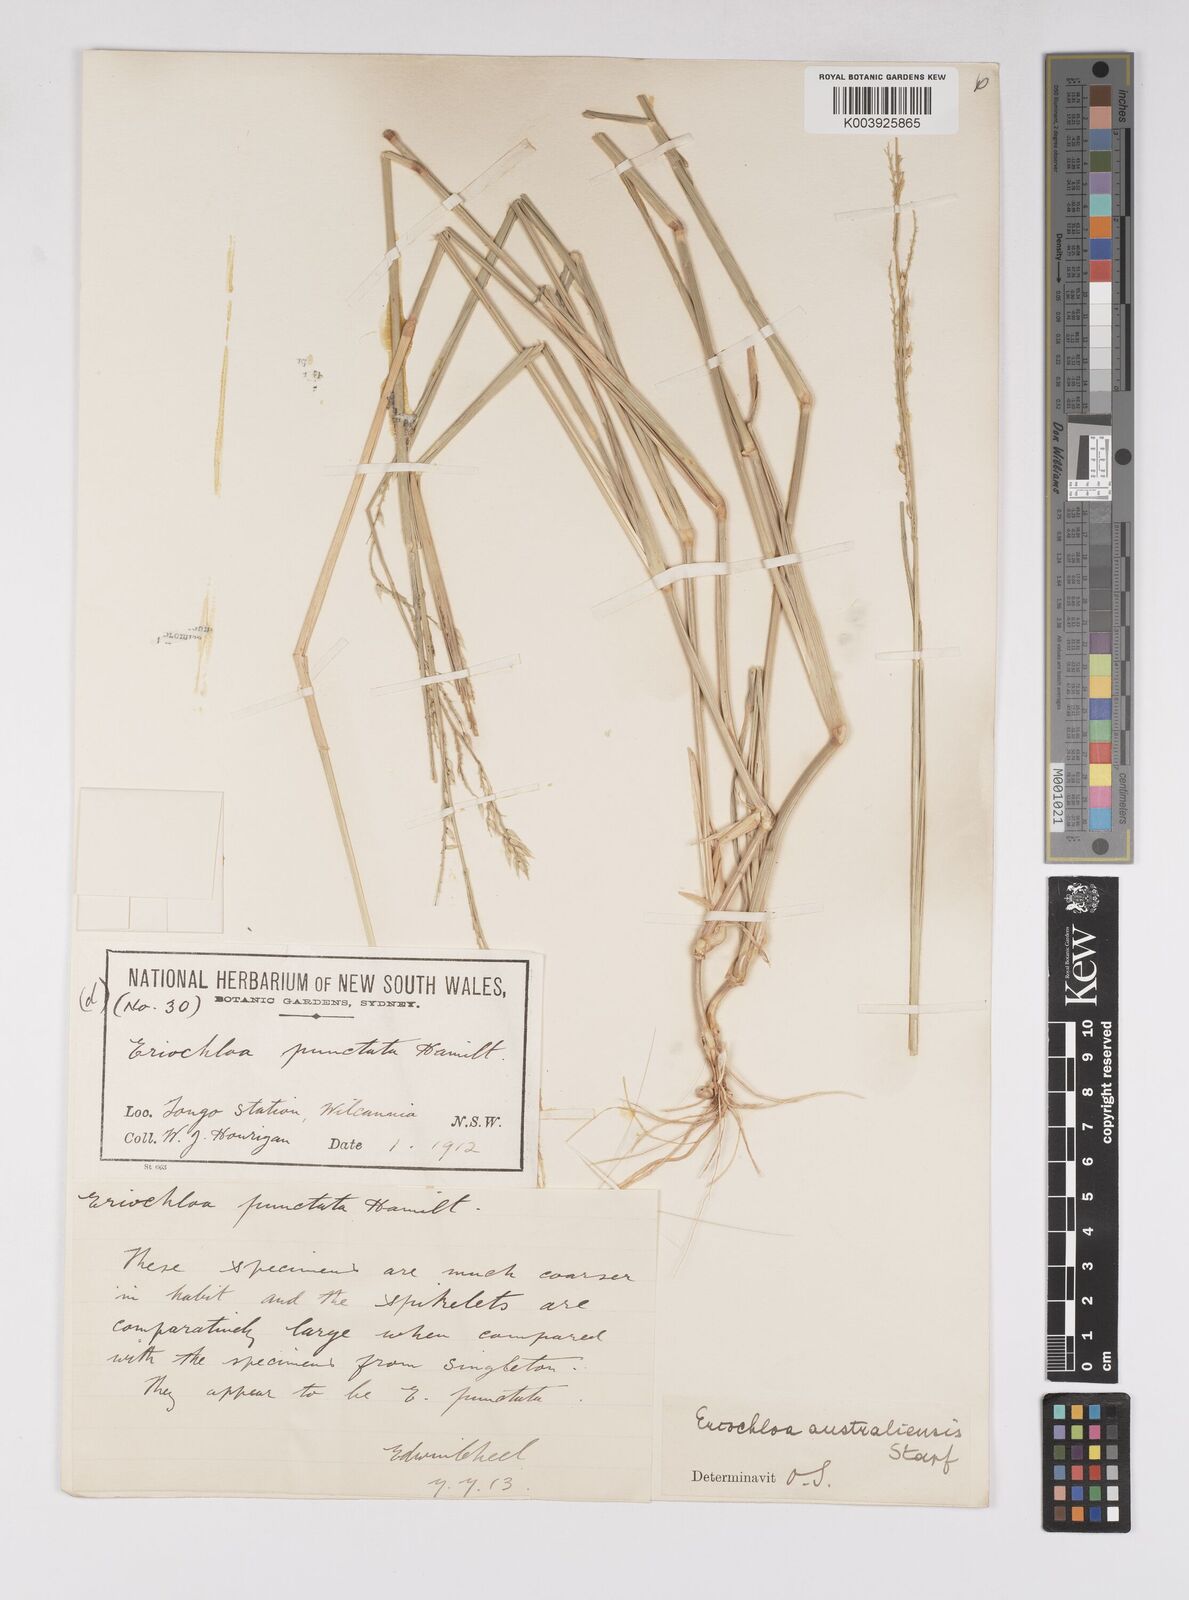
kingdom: Plantae
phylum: Tracheophyta
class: Liliopsida
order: Poales
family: Poaceae
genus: Eriochloa
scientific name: Eriochloa australiensis
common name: Australian cup grass
